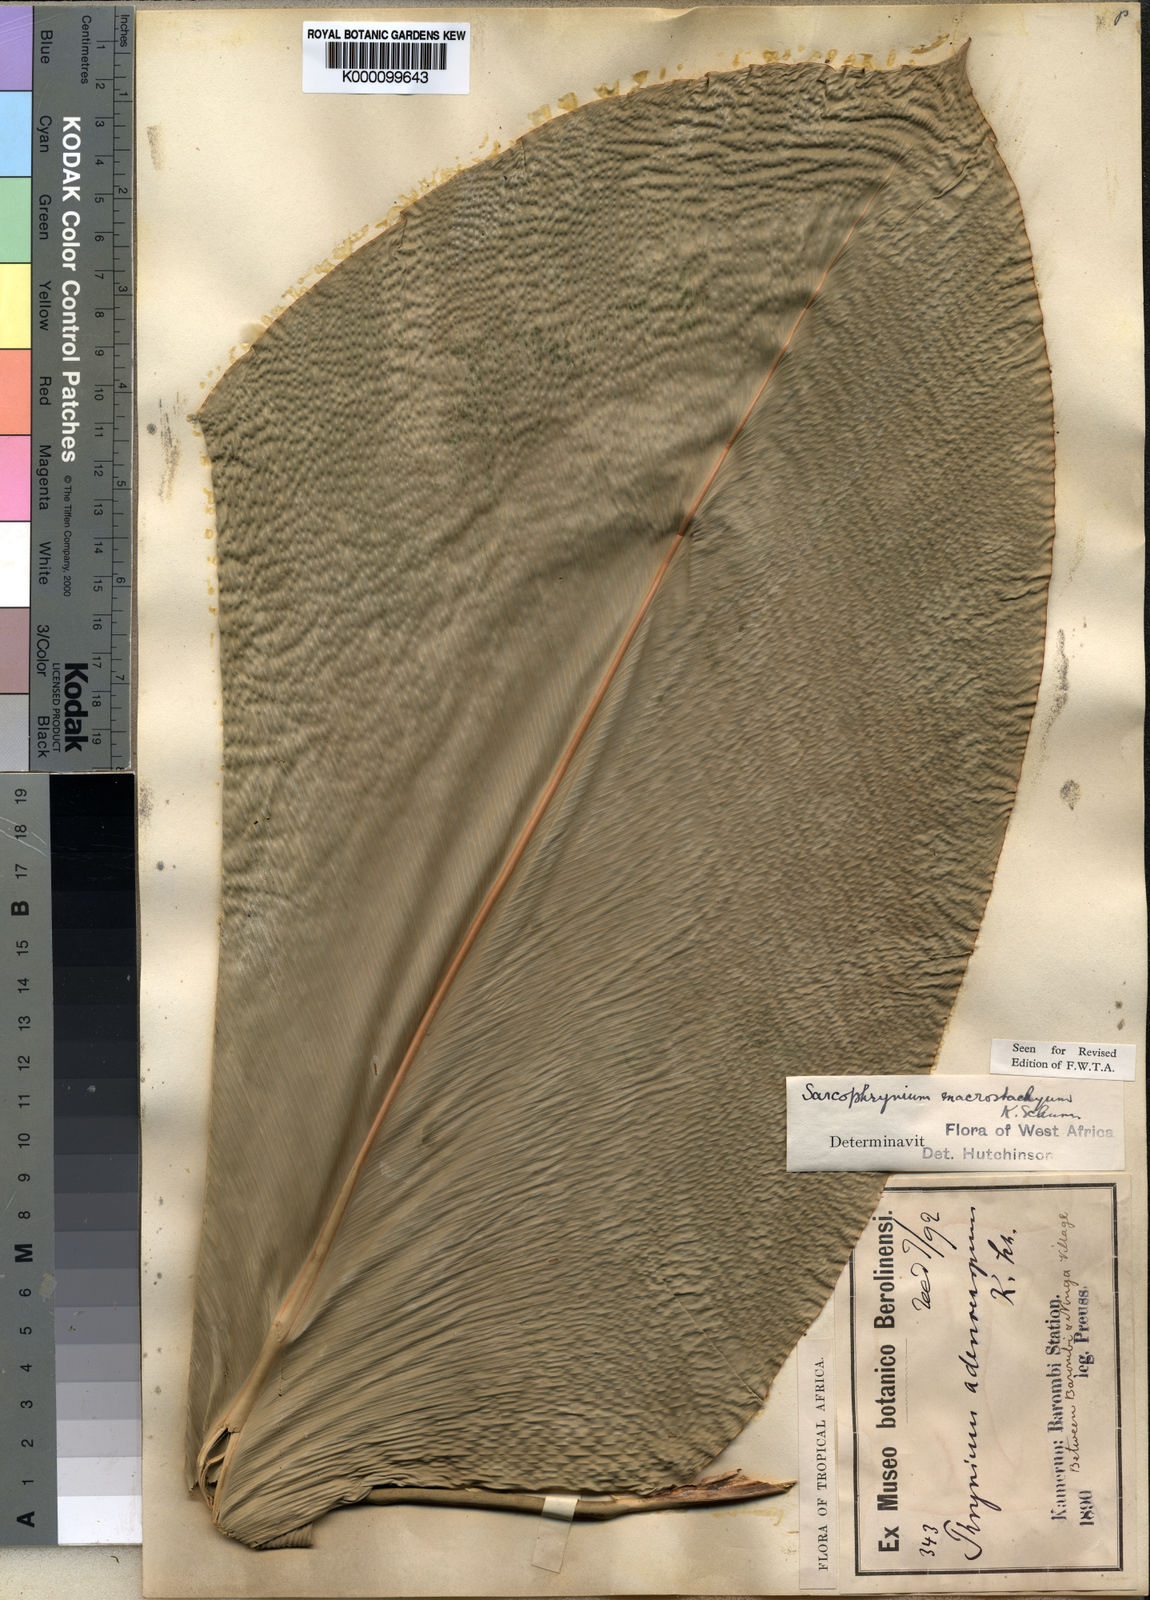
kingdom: Plantae
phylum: Tracheophyta
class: Liliopsida
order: Zingiberales
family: Marantaceae
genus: Megaphrynium
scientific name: Megaphrynium macrostachyum
